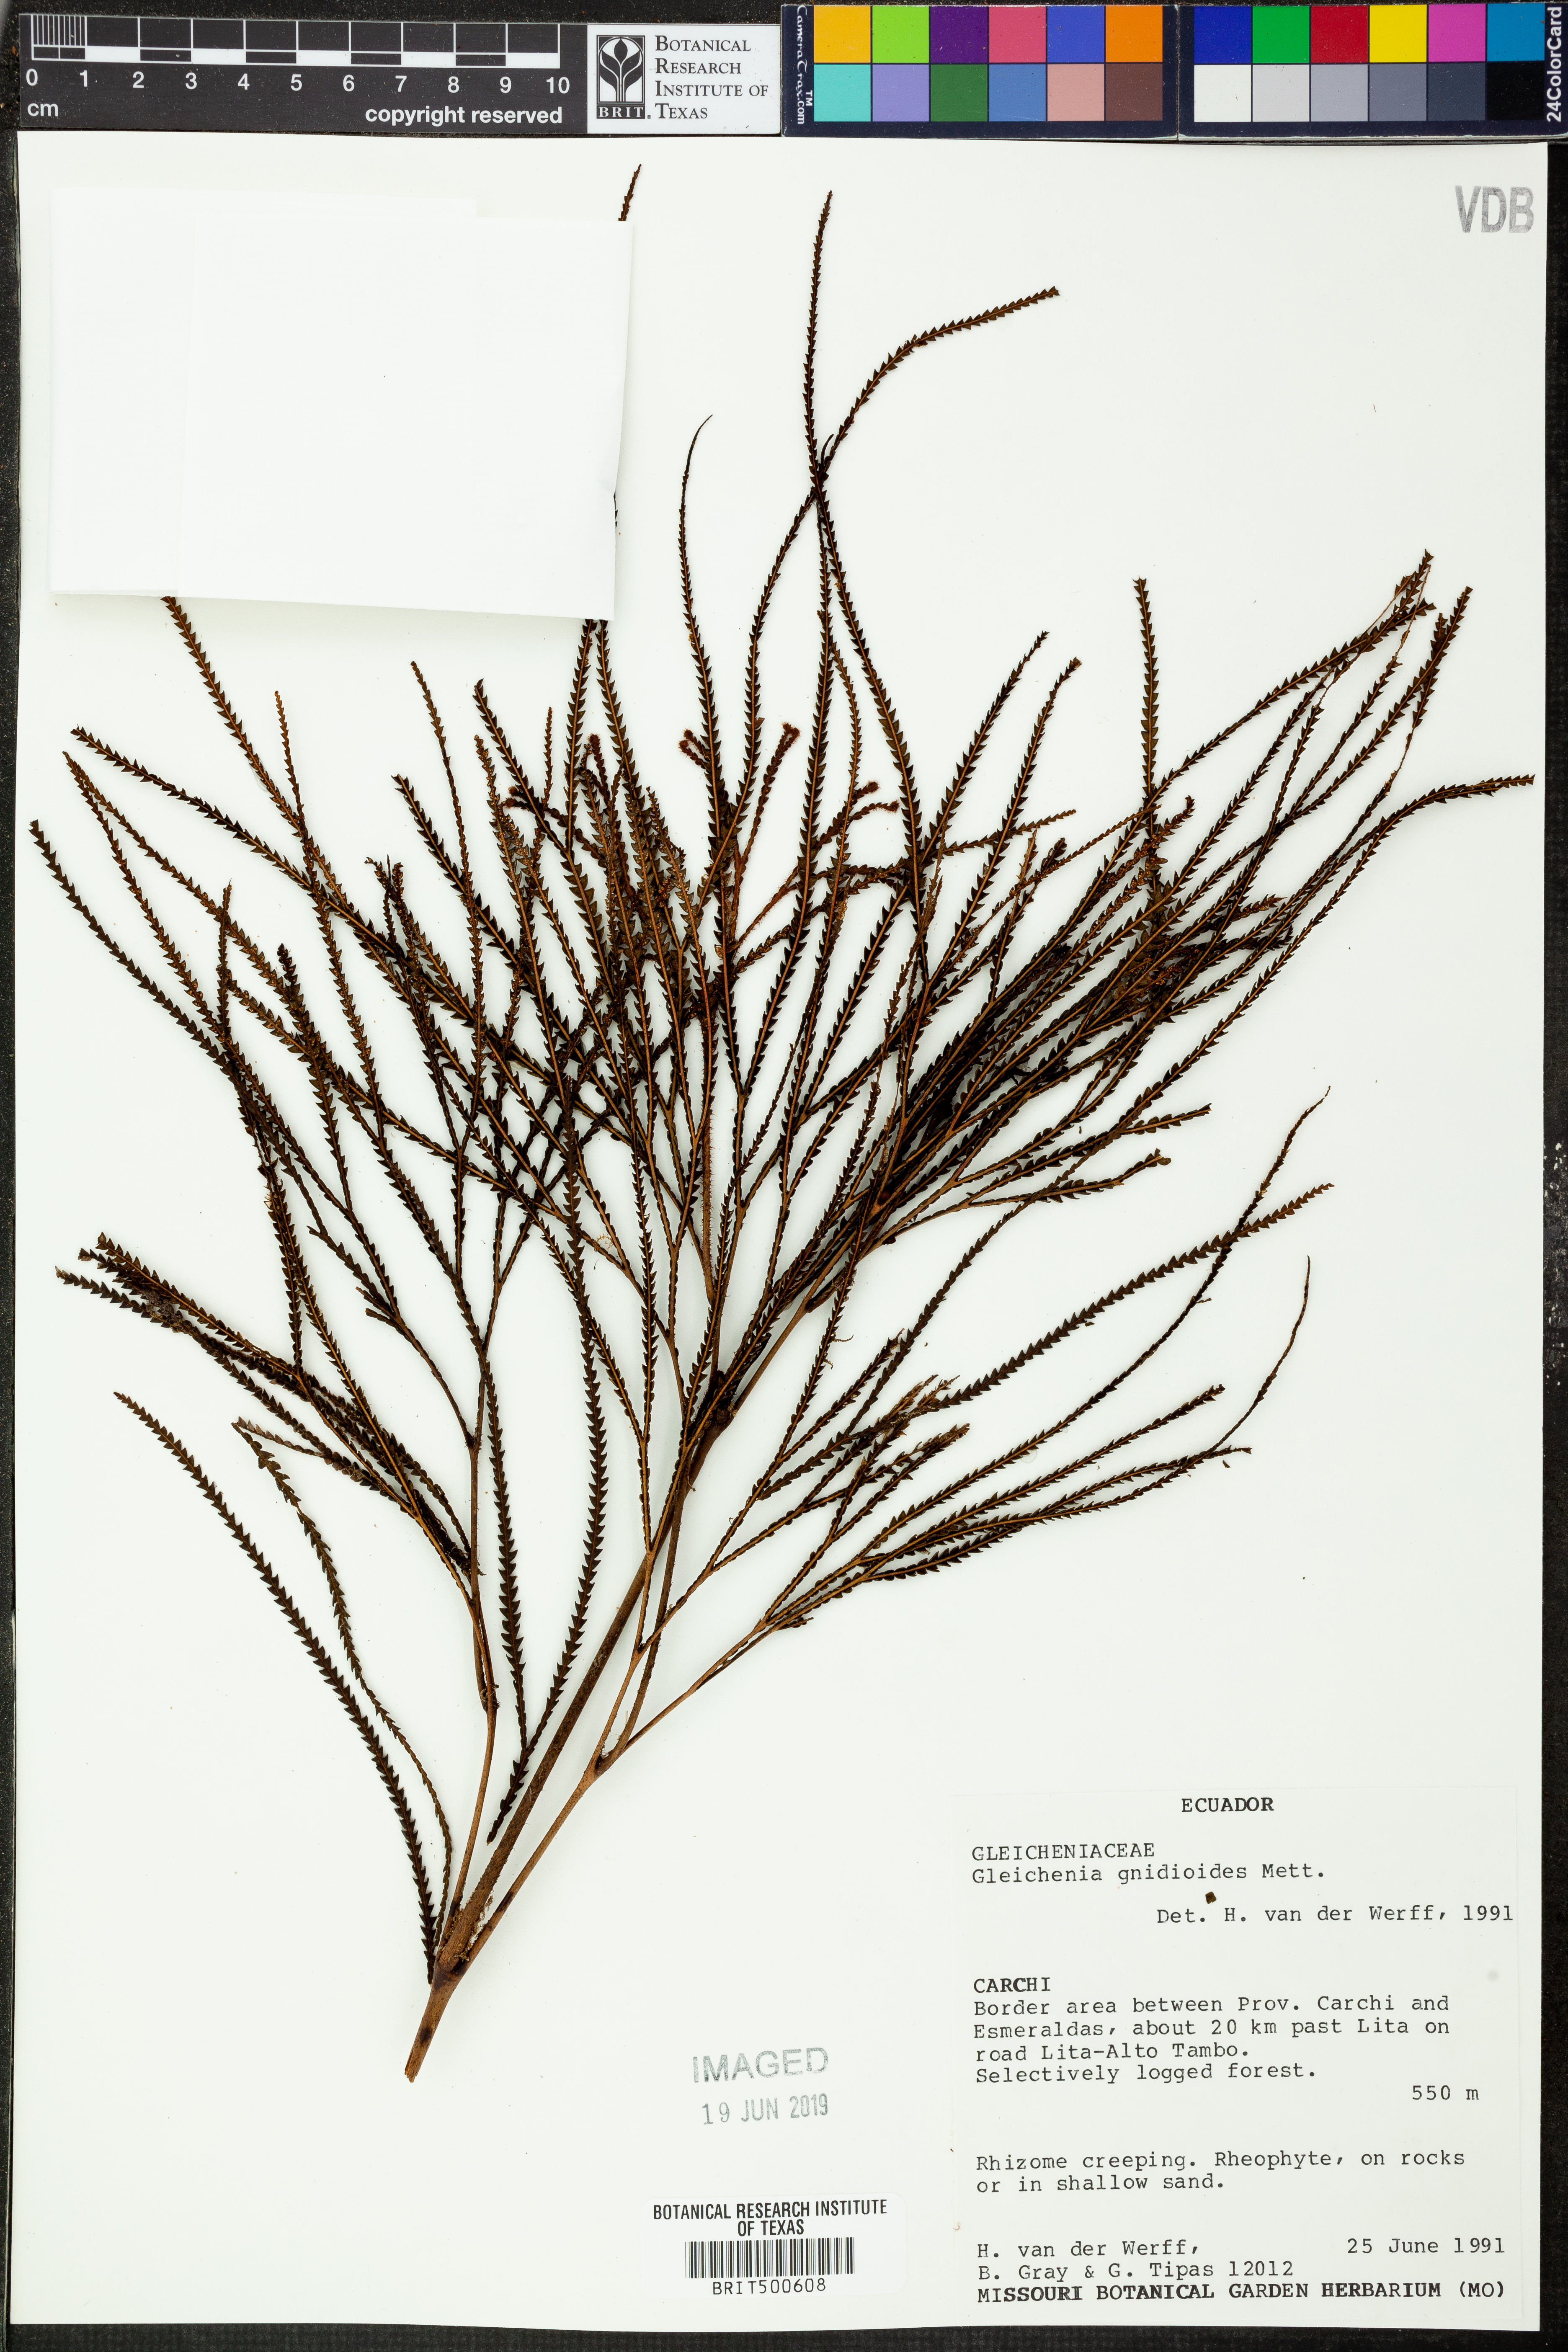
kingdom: Plantae
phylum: Tracheophyta
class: Polypodiopsida
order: Gleicheniales
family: Gleicheniaceae
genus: Sticherus
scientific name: Sticherus gnidioides
